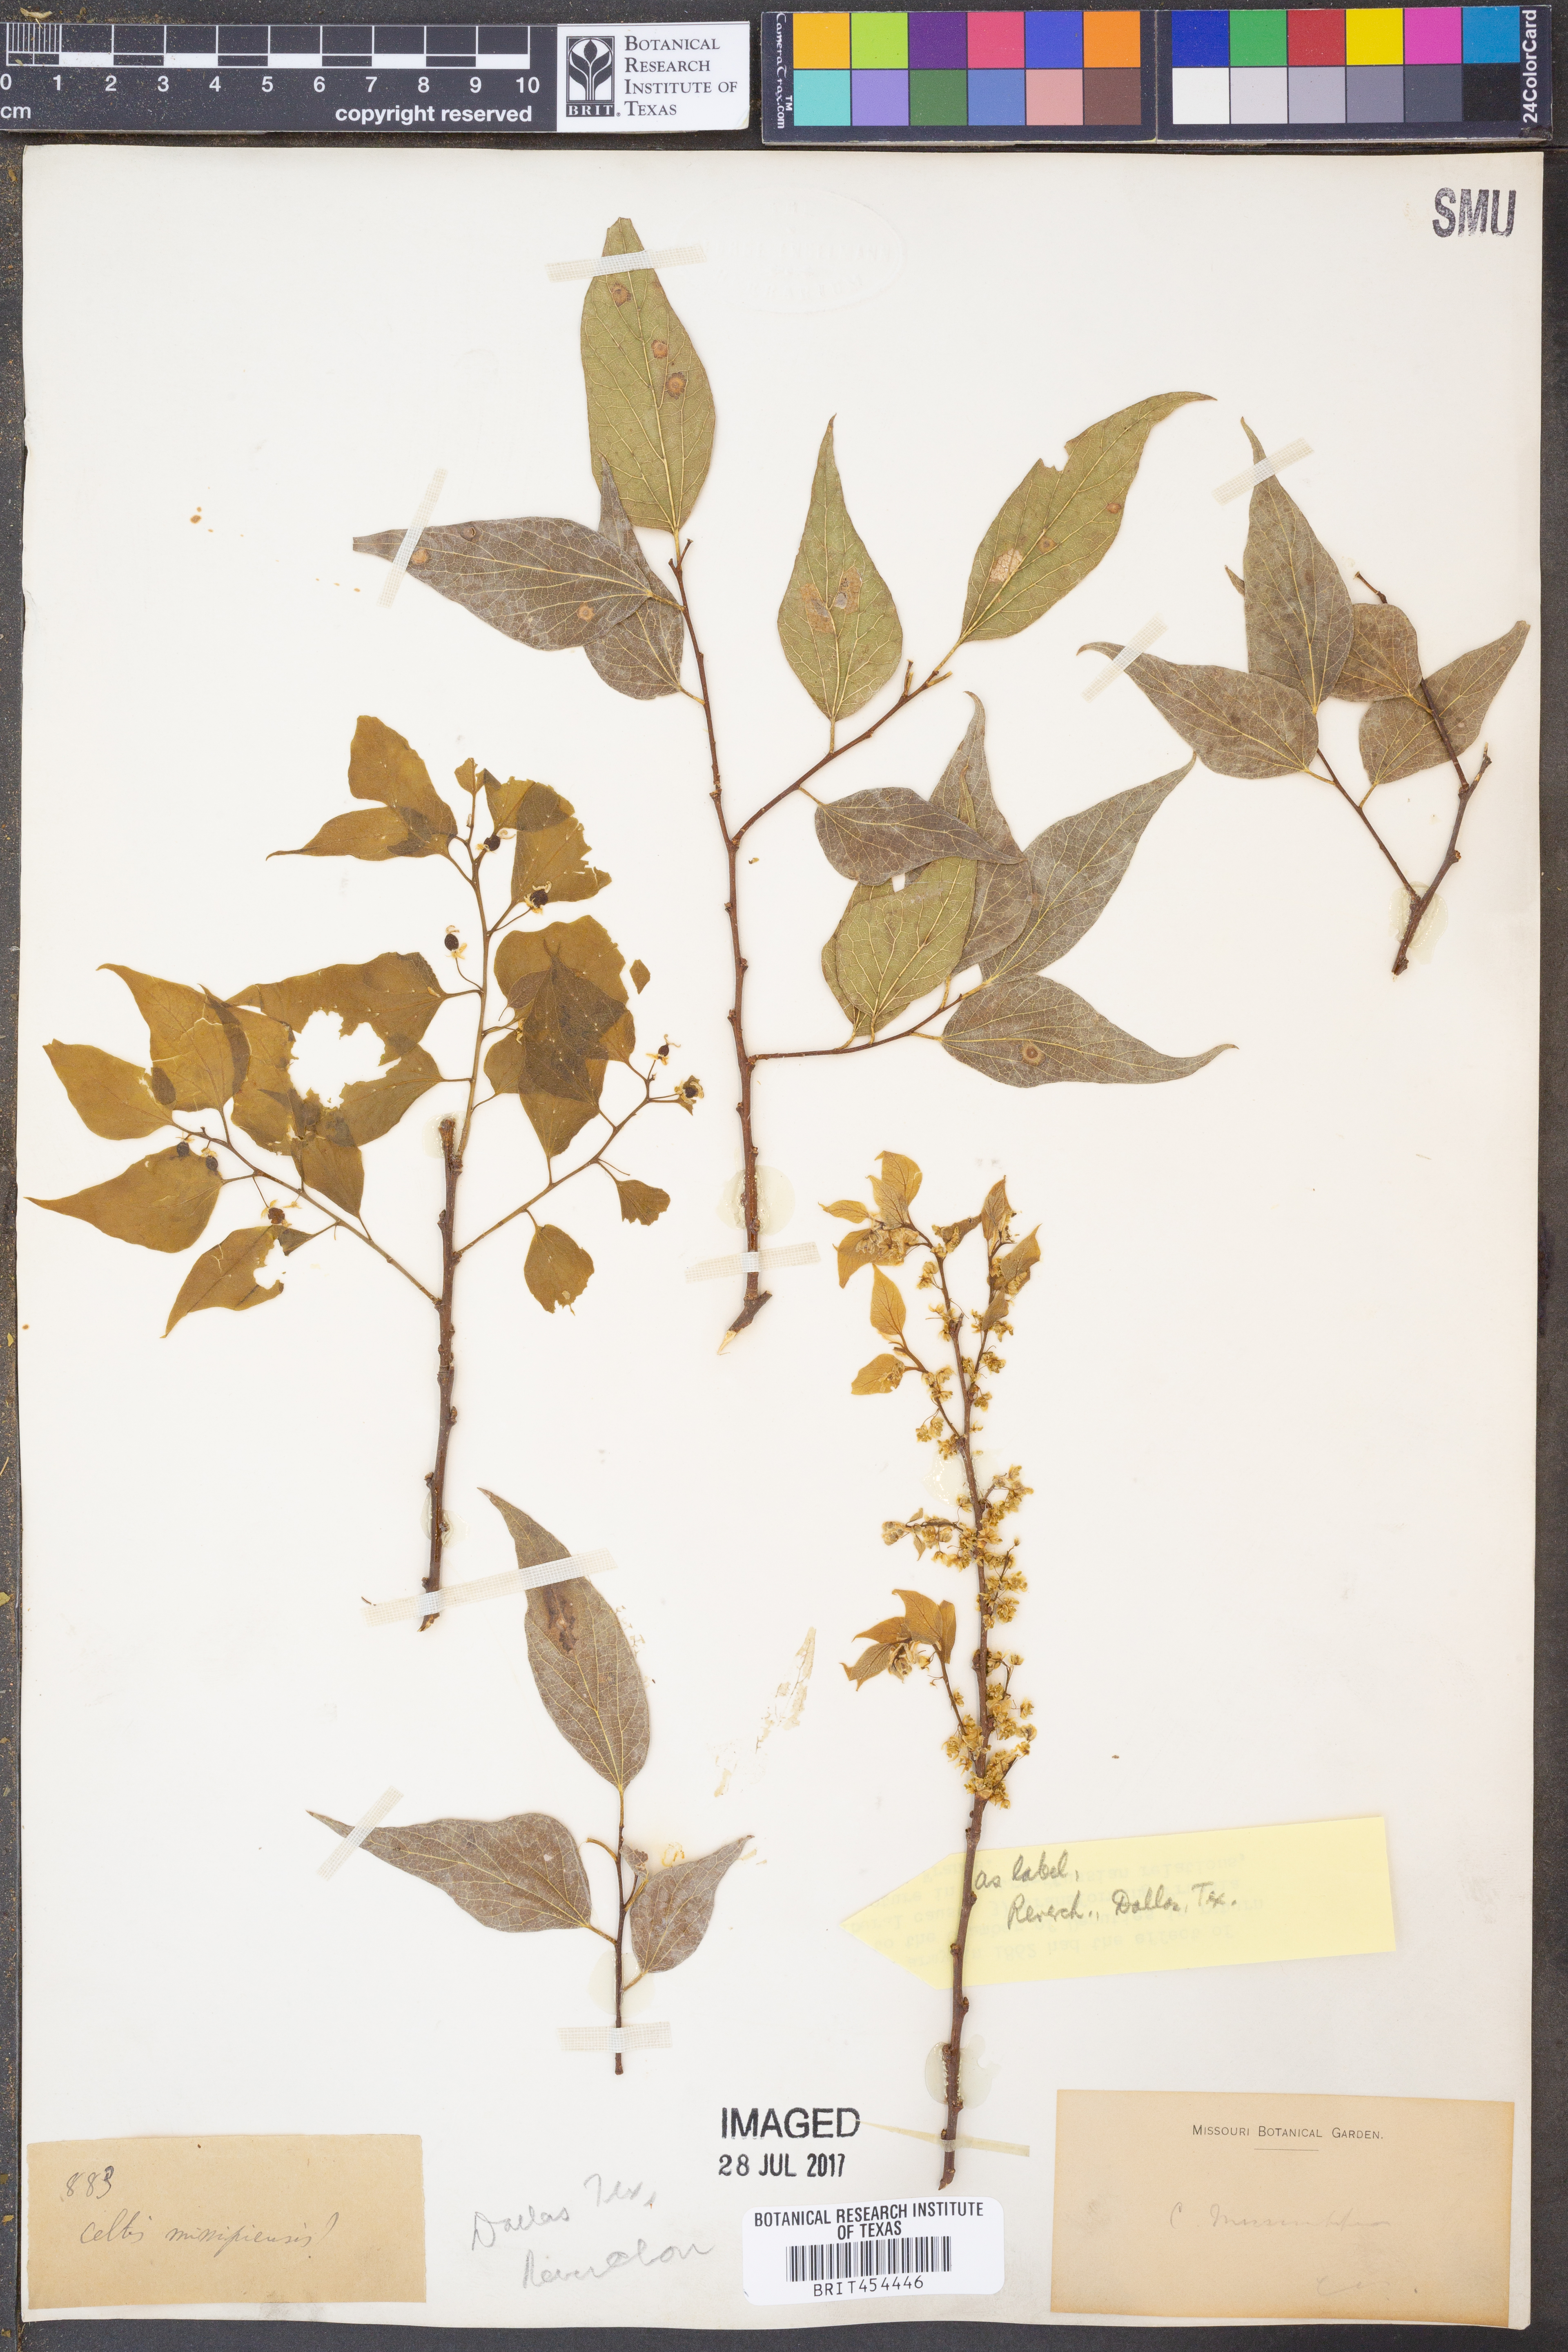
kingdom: Plantae
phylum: Tracheophyta
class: Magnoliopsida
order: Rosales
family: Cannabaceae
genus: Celtis
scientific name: Celtis
